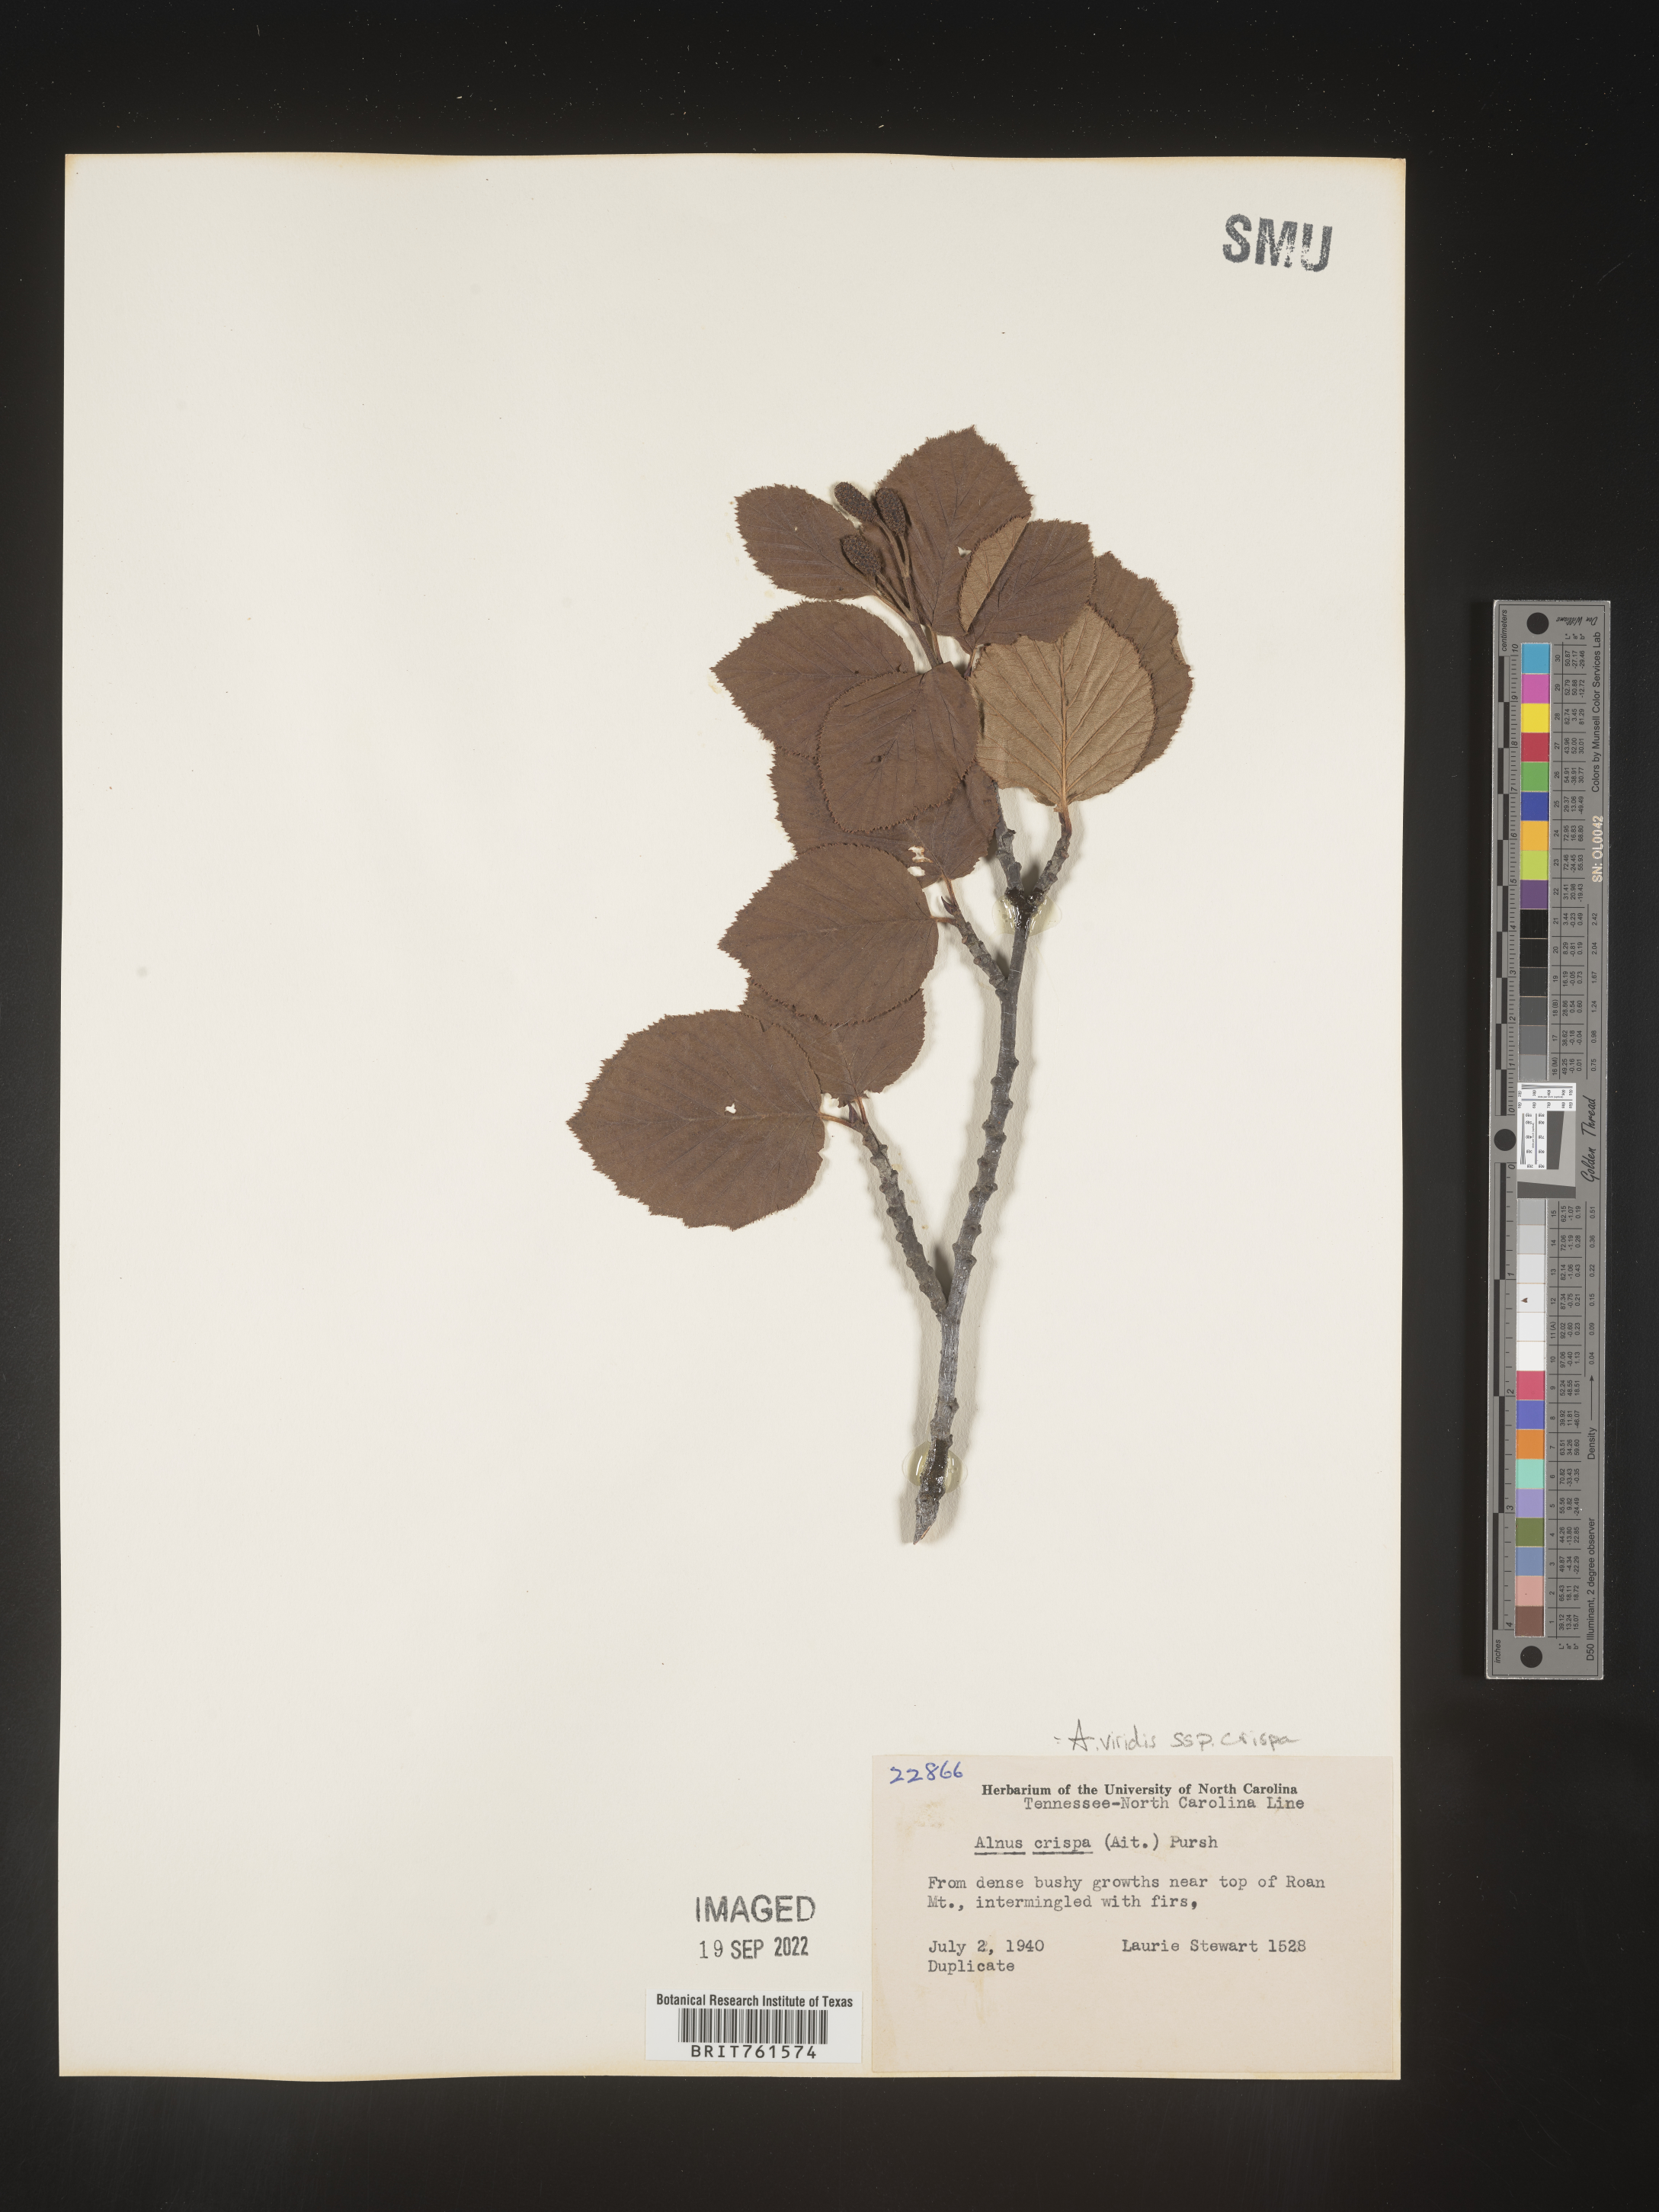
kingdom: Plantae
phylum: Tracheophyta
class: Magnoliopsida
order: Fagales
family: Betulaceae
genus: Alnus
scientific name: Alnus alnobetula
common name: Green alder
